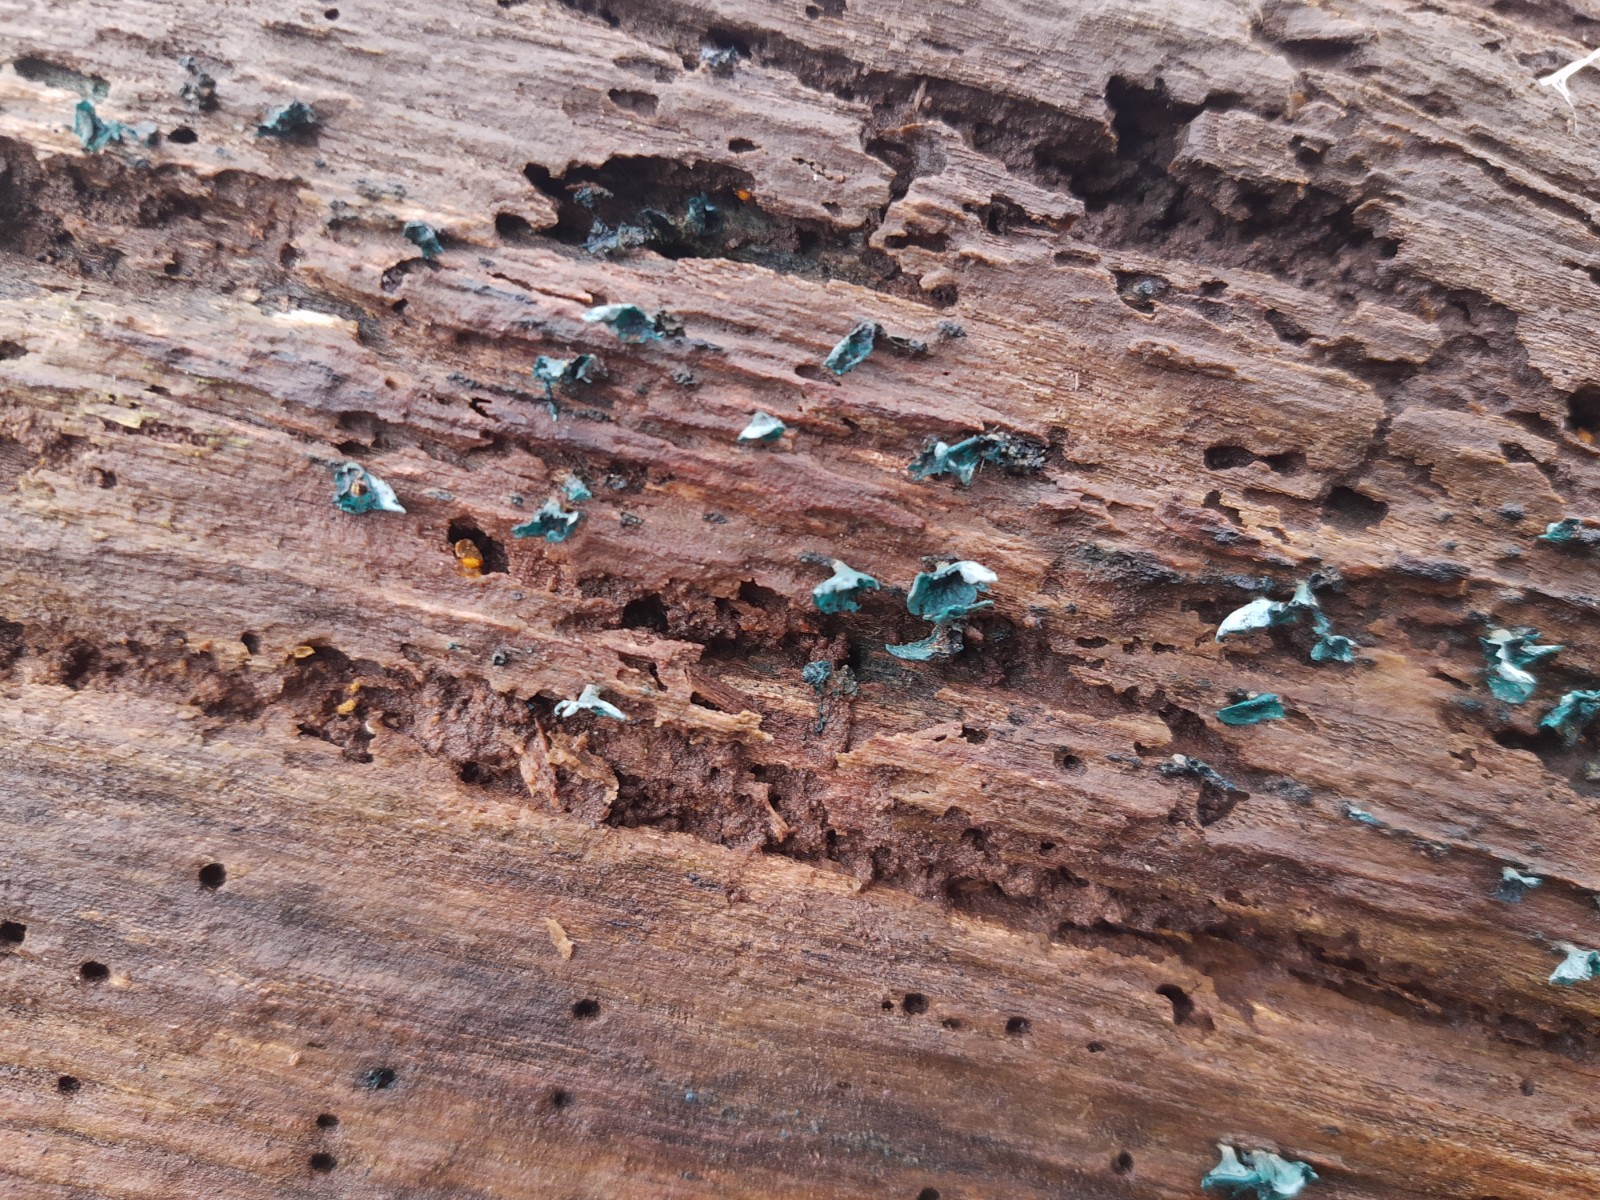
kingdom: Fungi
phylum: Ascomycota
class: Leotiomycetes
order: Helotiales
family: Chlorociboriaceae
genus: Chlorociboria
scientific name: Chlorociboria aeruginascens
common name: almindelig grønskive
